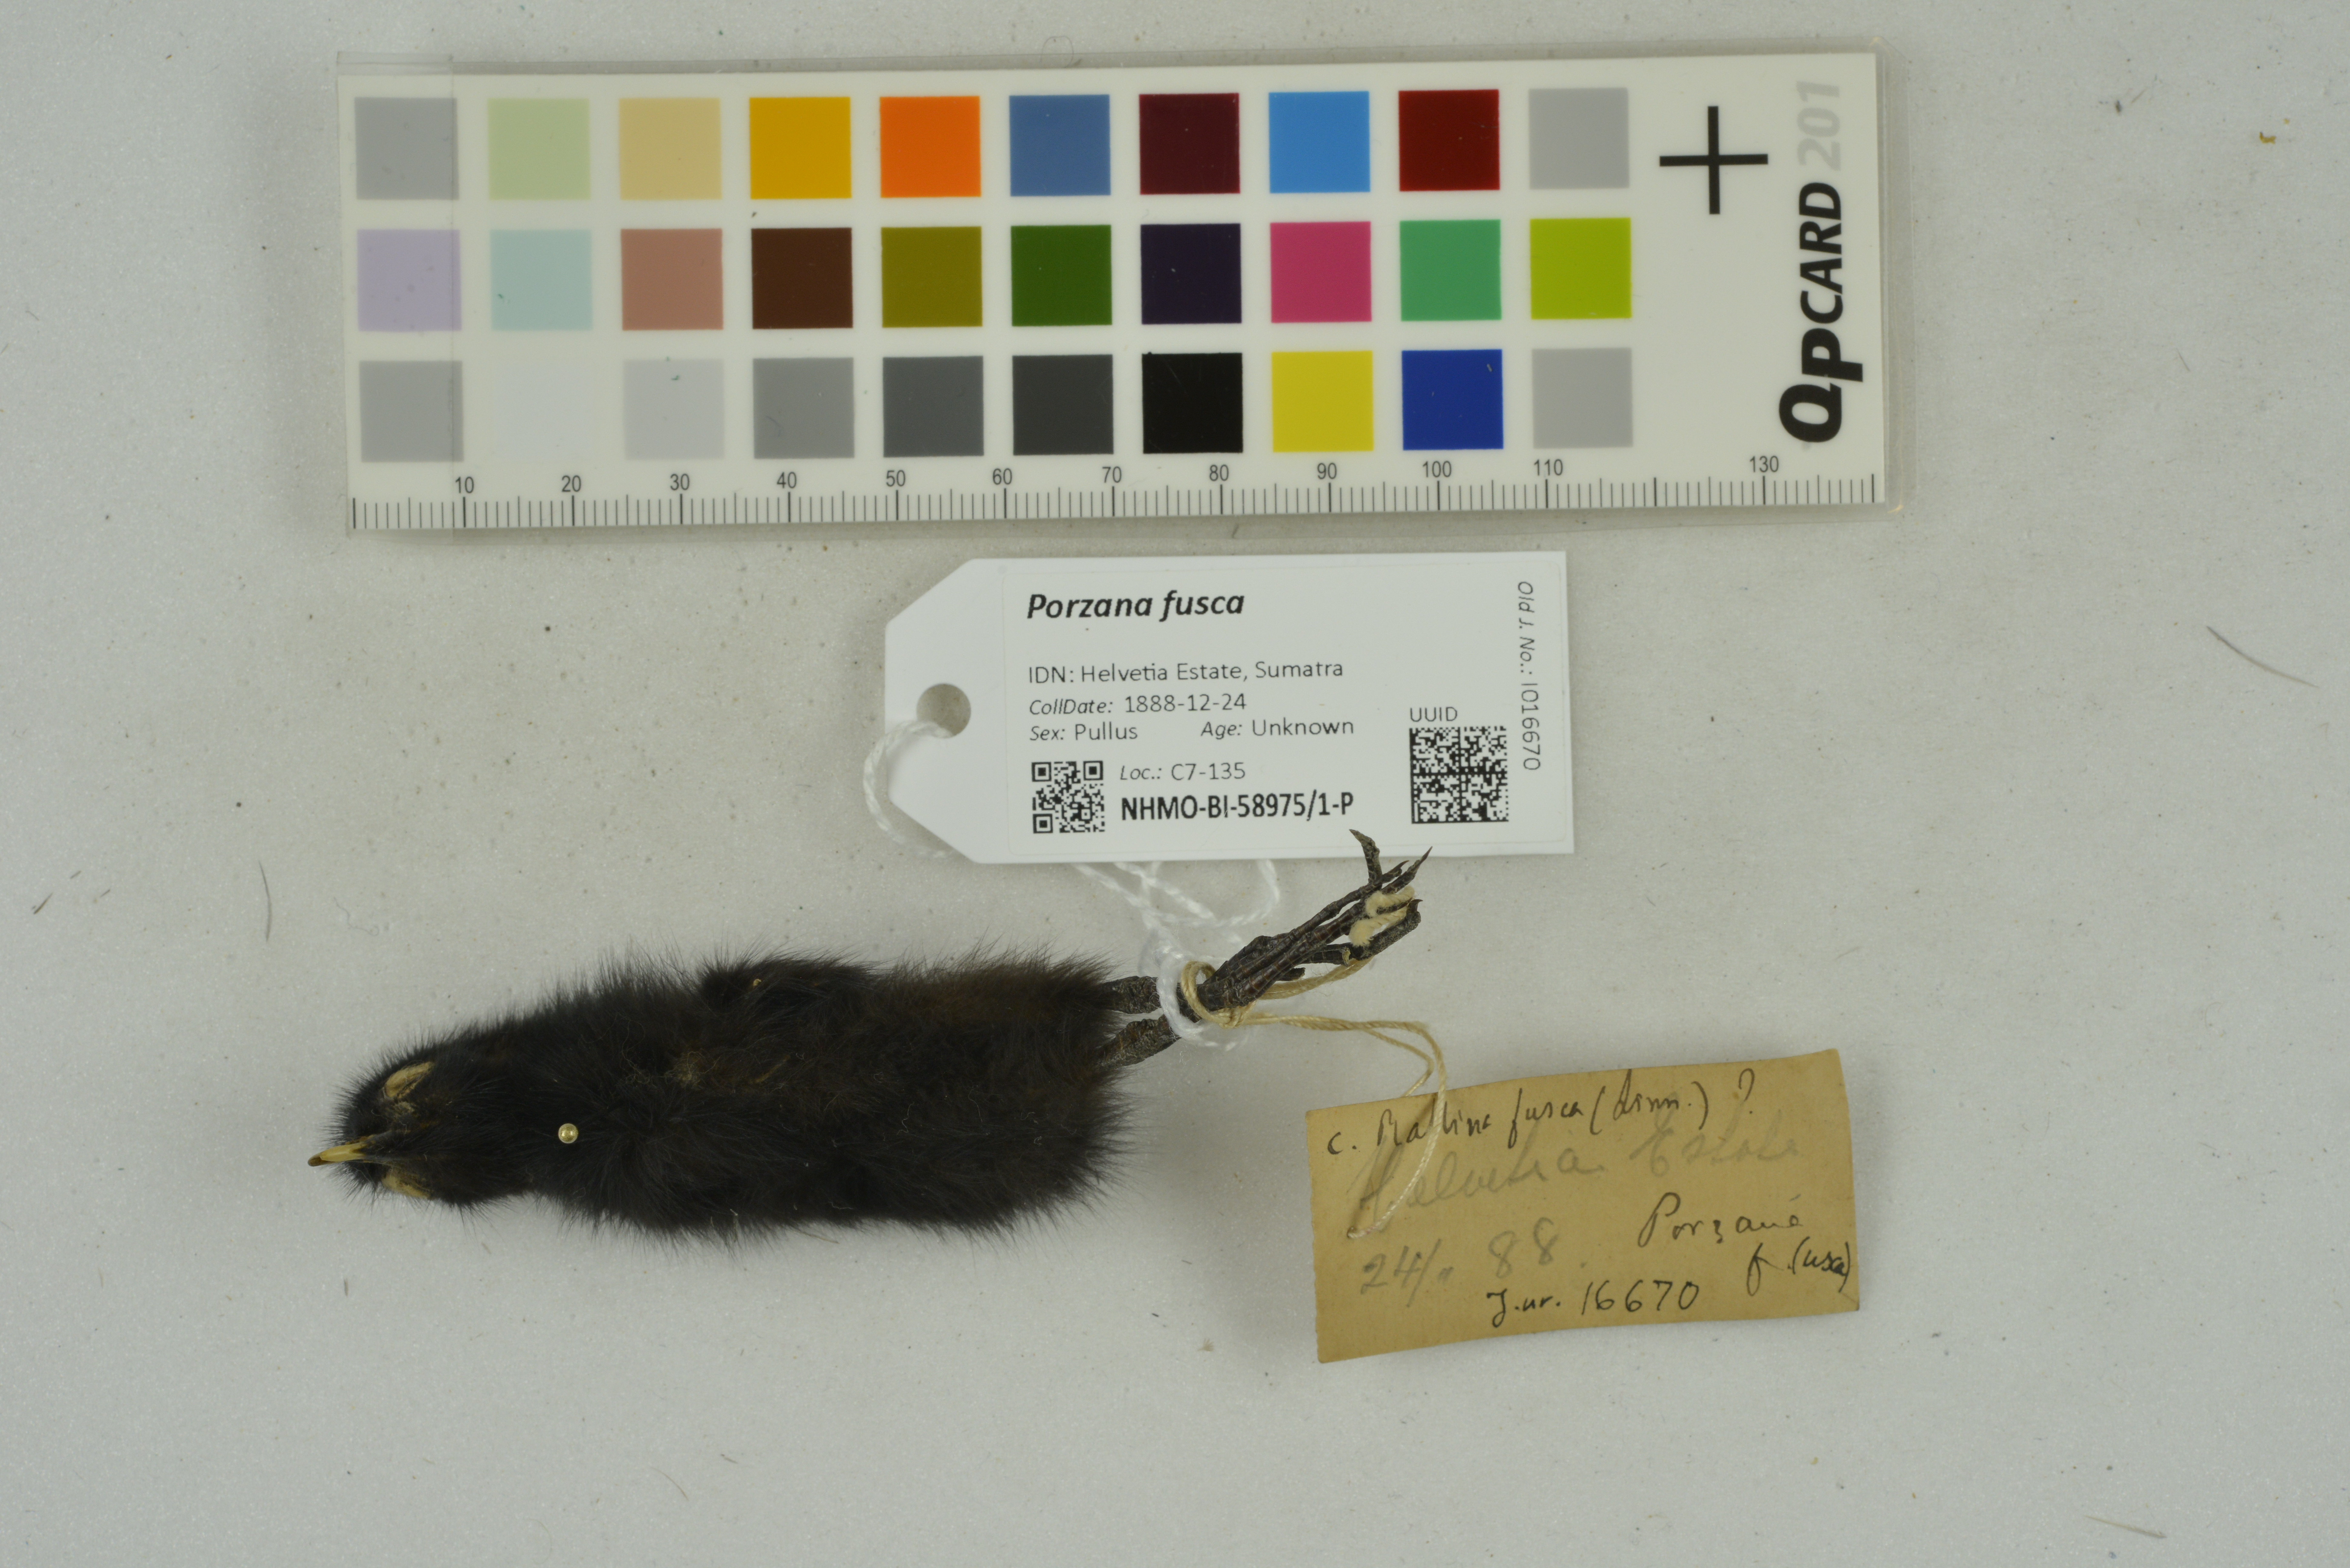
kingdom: Animalia
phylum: Chordata
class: Aves
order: Gruiformes
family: Rallidae
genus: Porzana
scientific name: Porzana fusca
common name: Ruddy-breasted crake
